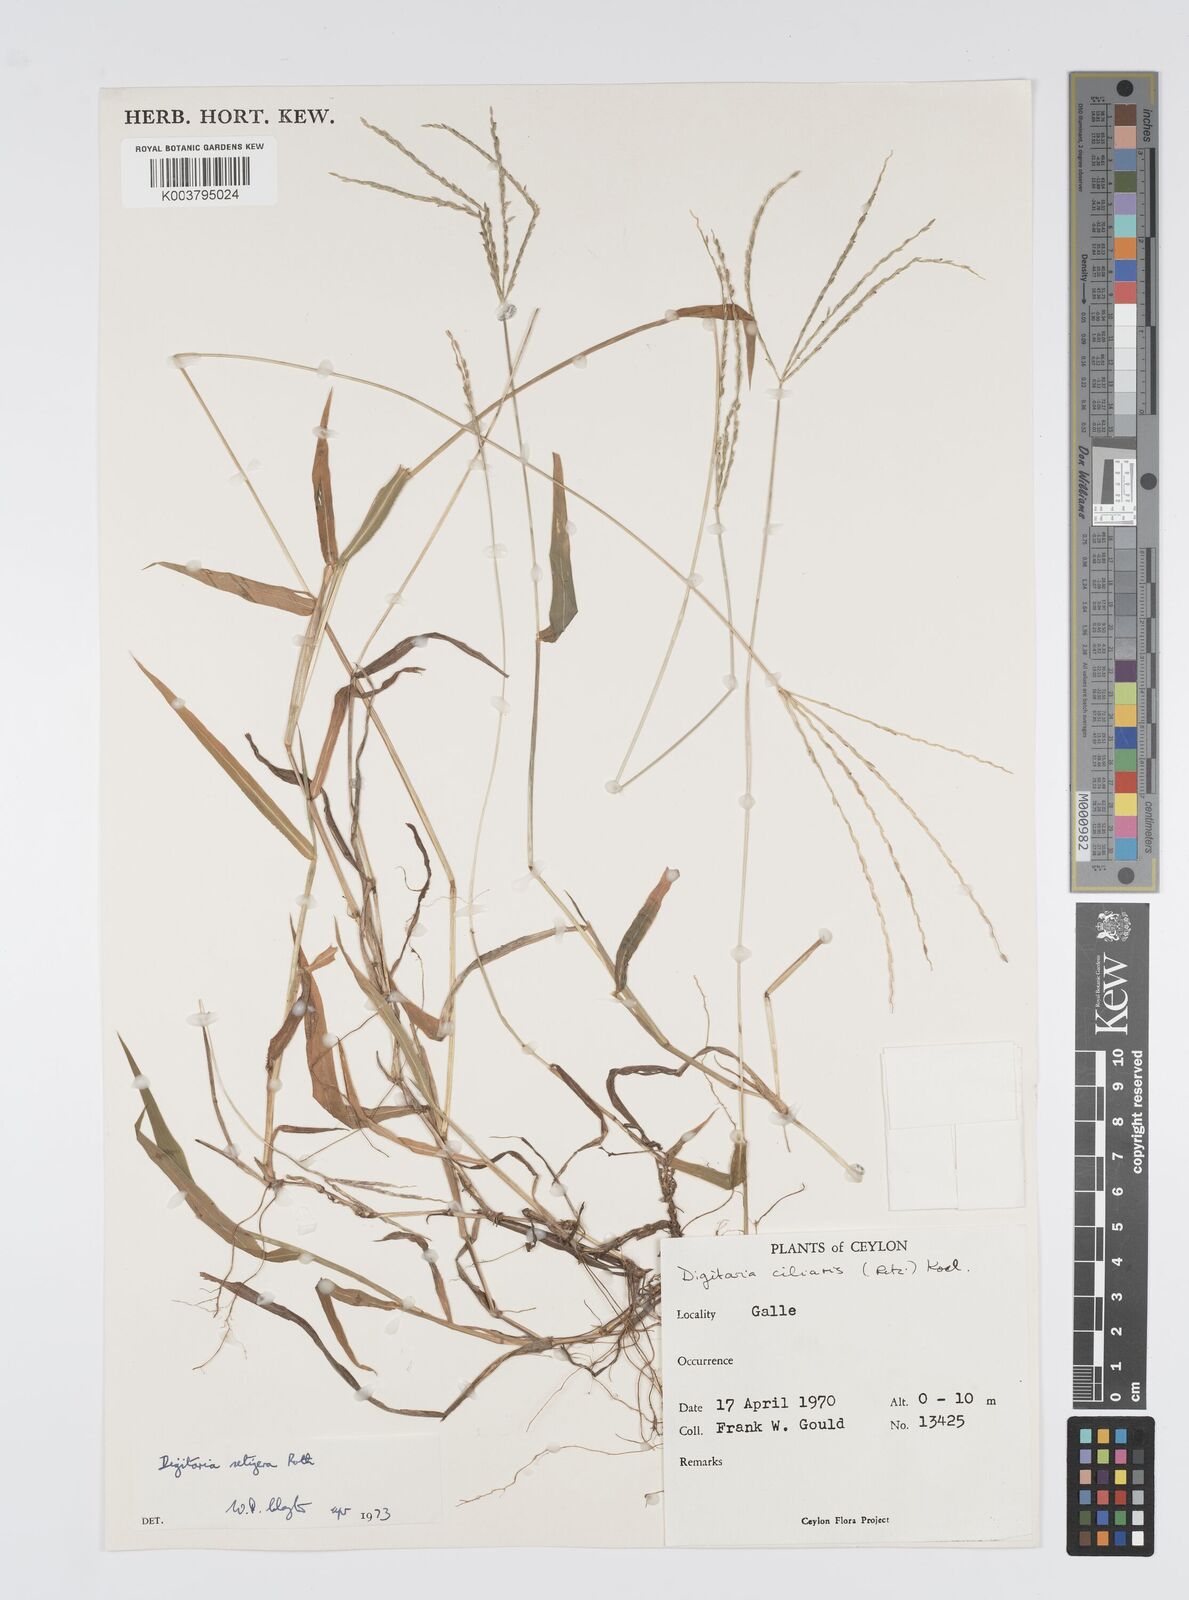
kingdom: Plantae
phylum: Tracheophyta
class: Liliopsida
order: Poales
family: Poaceae
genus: Digitaria
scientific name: Digitaria setigera
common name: East indian crabgrass
